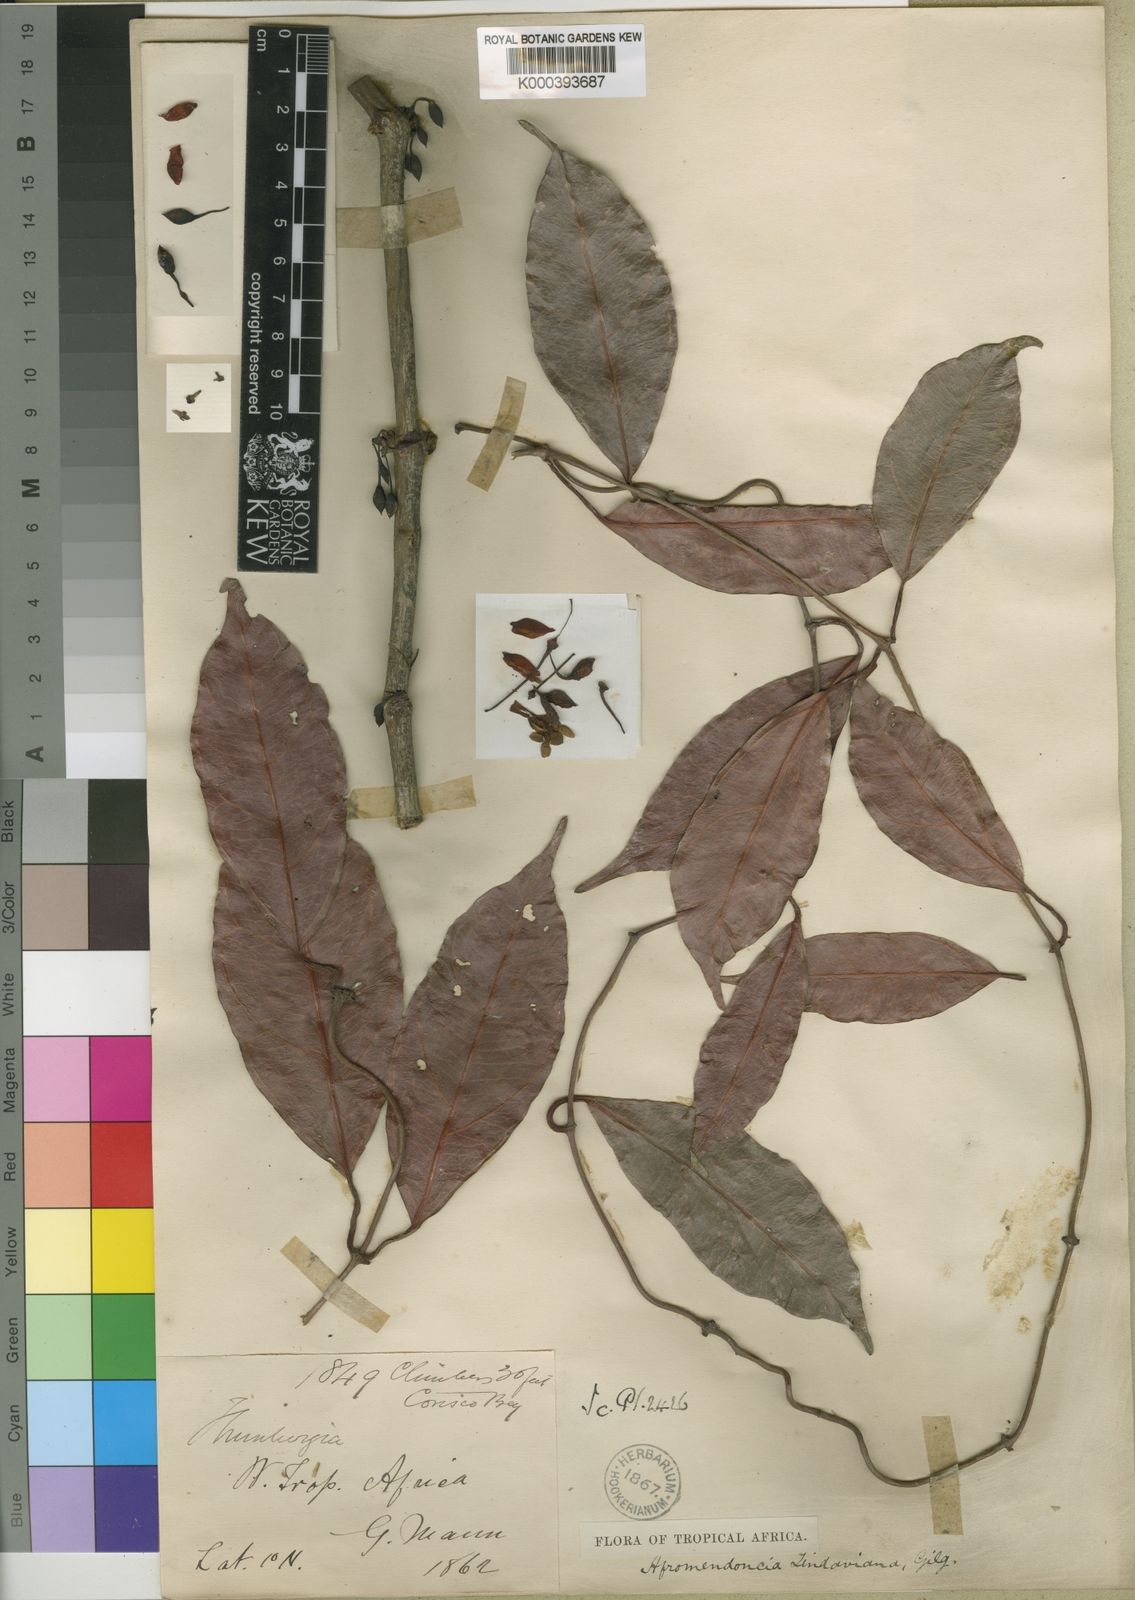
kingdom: Plantae
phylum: Tracheophyta
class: Magnoliopsida
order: Lamiales
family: Acanthaceae
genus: Mendoncia
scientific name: Mendoncia lindaviana
